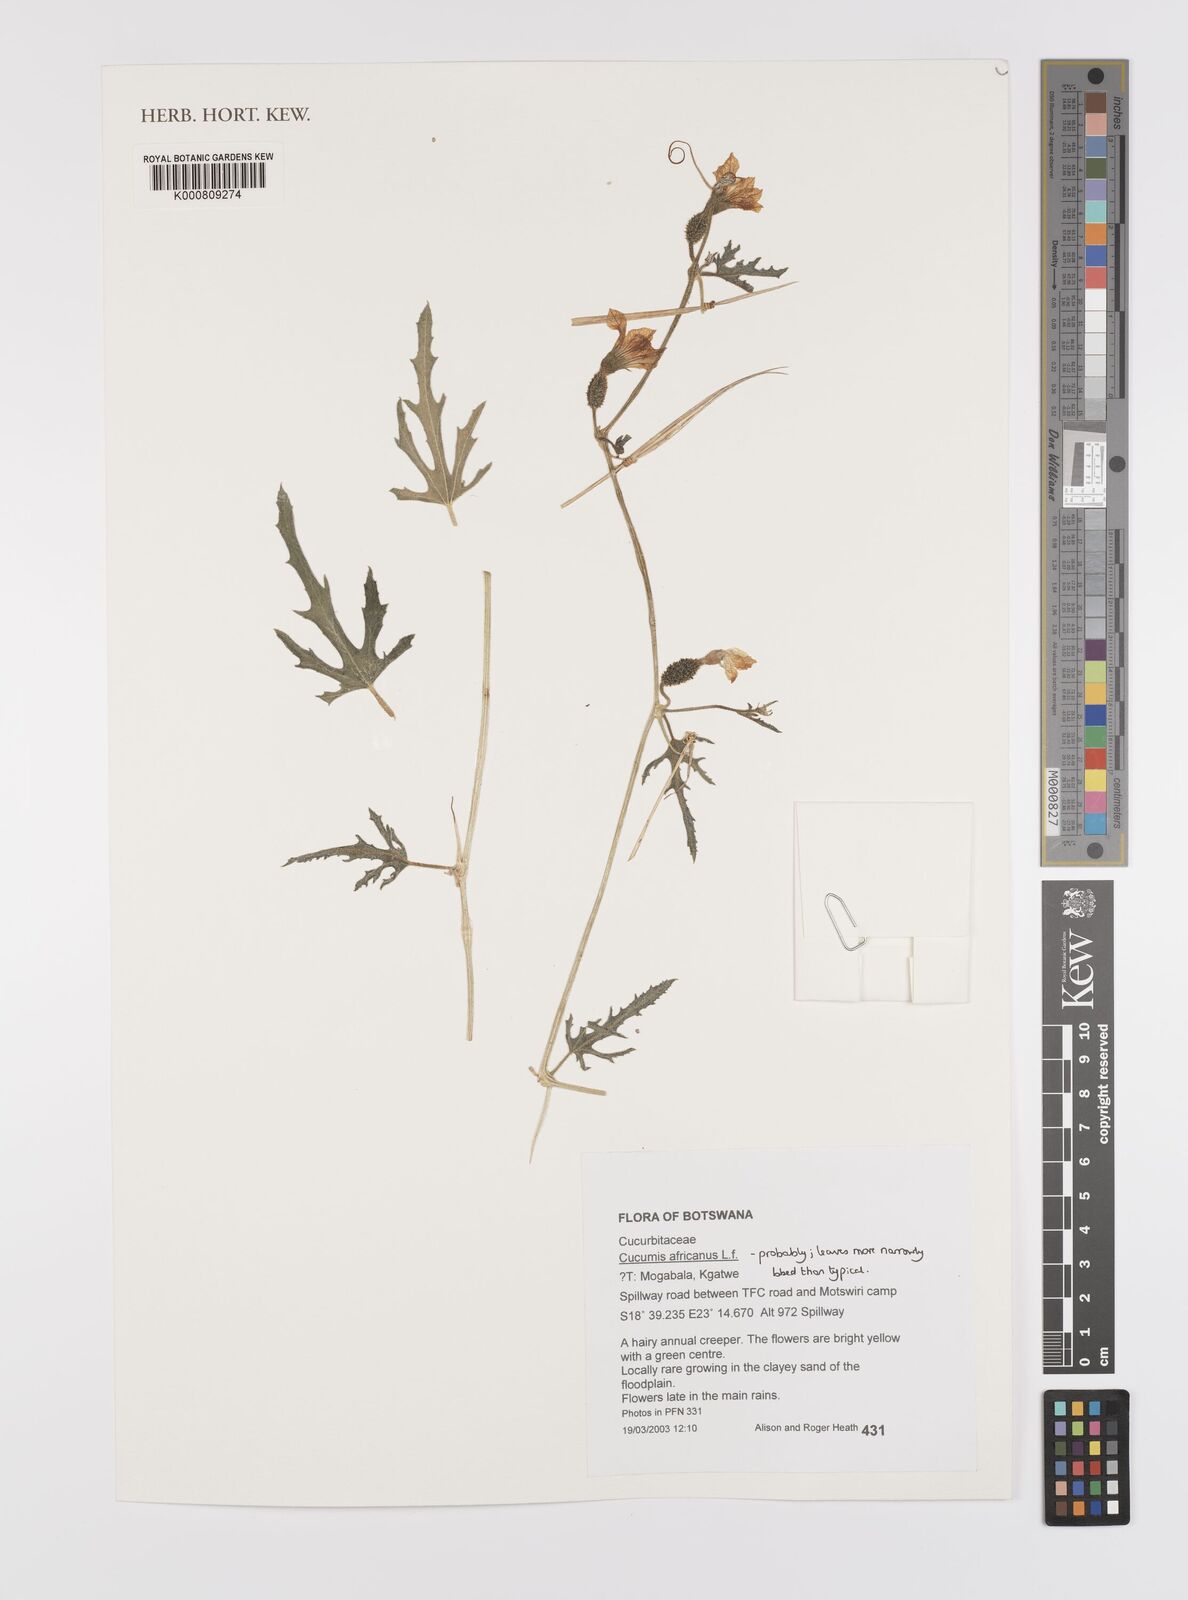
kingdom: Plantae
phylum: Tracheophyta
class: Magnoliopsida
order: Cucurbitales
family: Cucurbitaceae
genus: Cucumis
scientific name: Cucumis africanus
